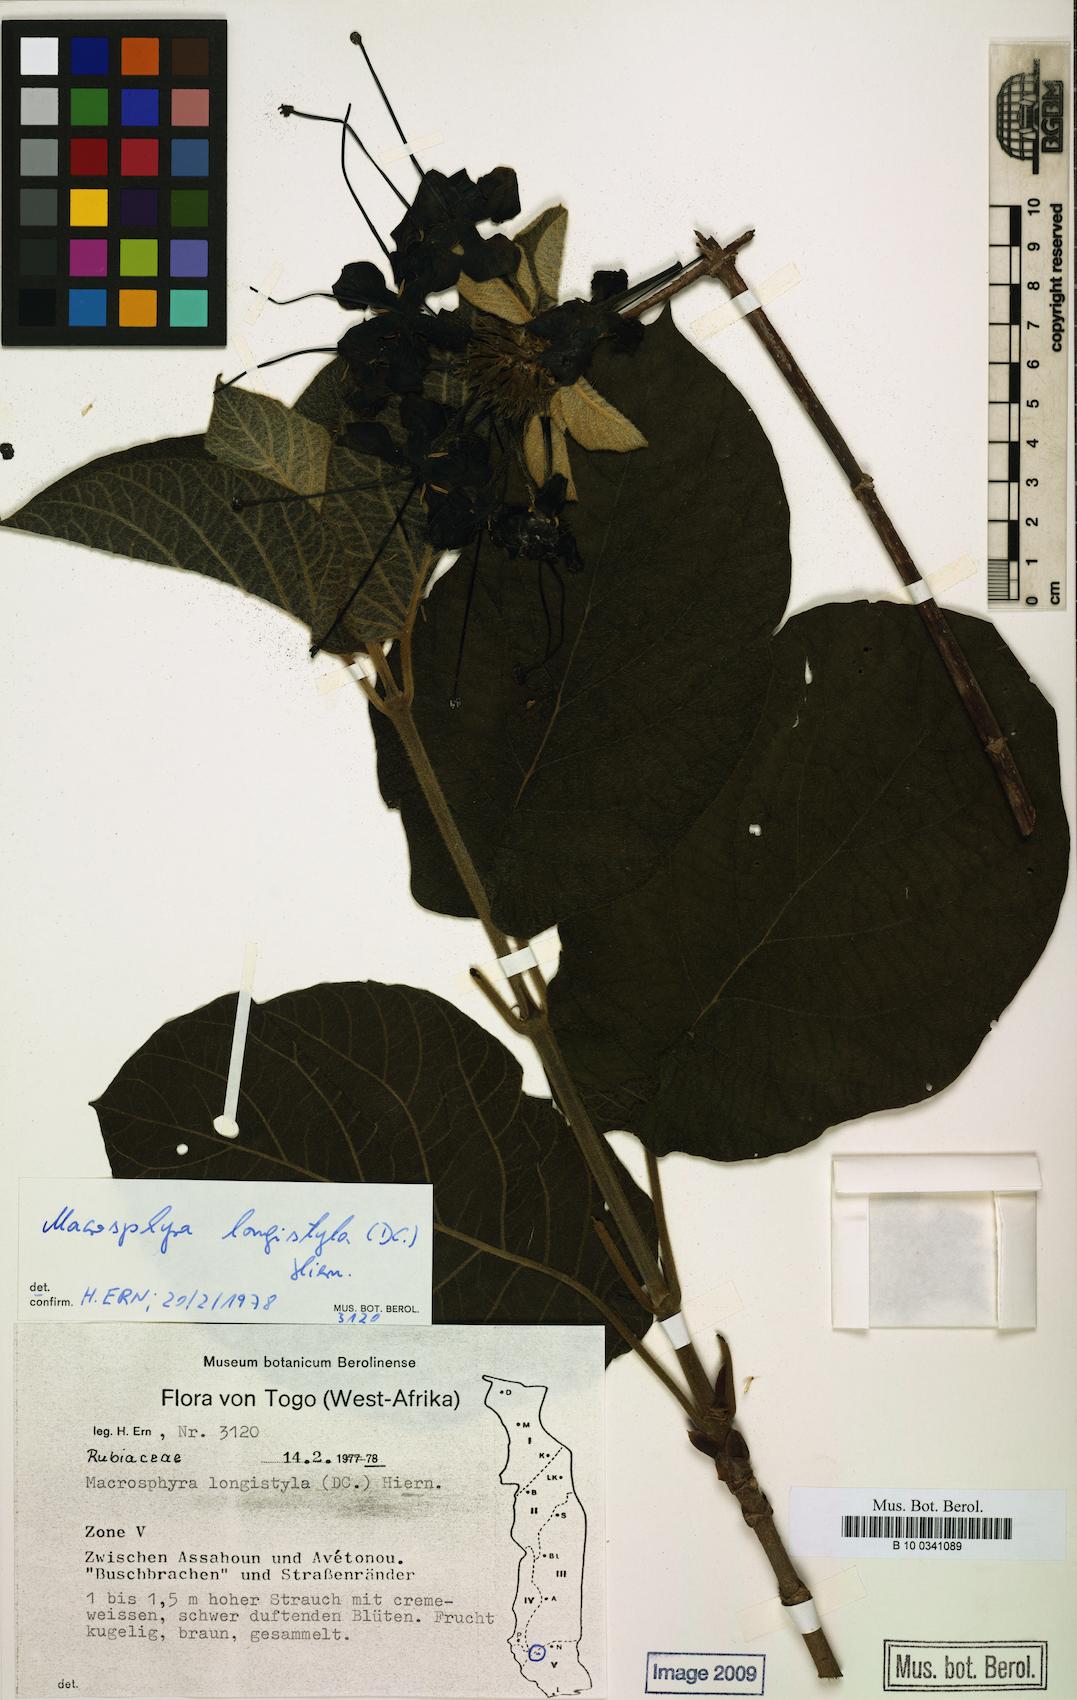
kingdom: Plantae
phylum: Tracheophyta
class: Magnoliopsida
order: Gentianales
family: Rubiaceae
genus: Macrosphyra
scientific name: Macrosphyra longistyla
